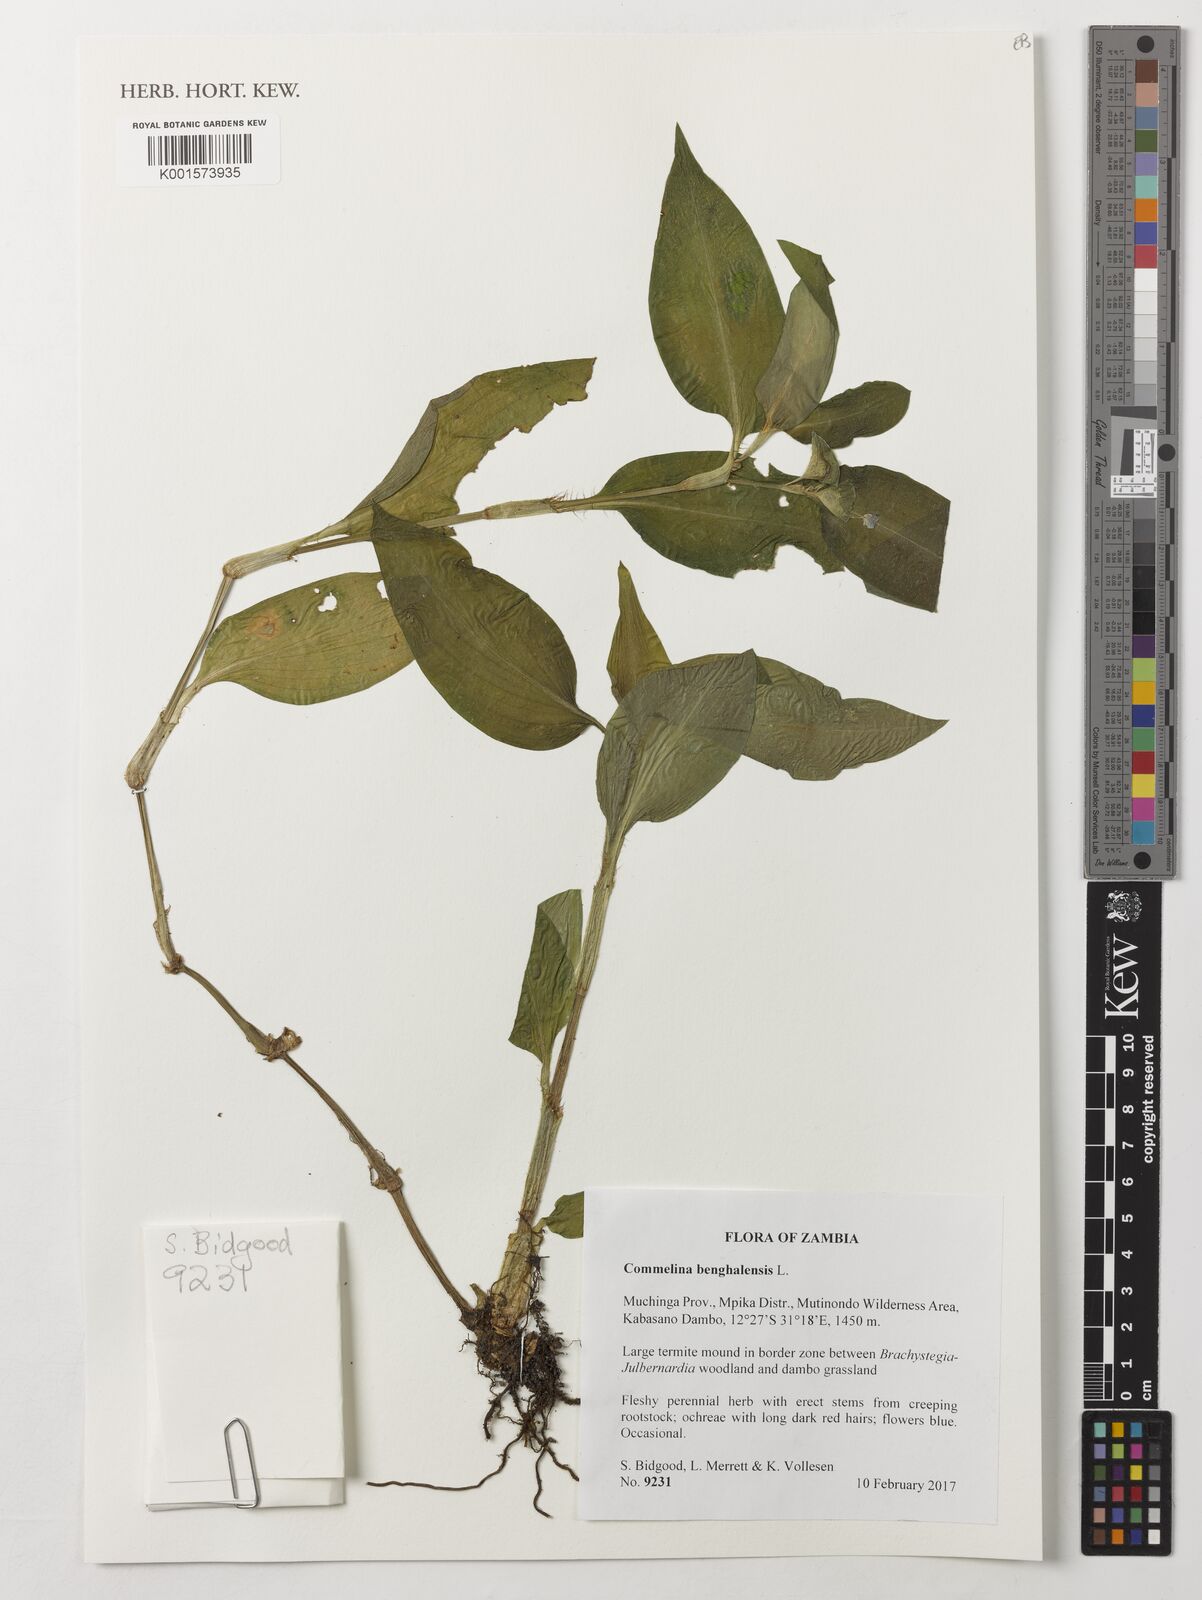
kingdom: Plantae
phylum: Tracheophyta
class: Liliopsida
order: Commelinales
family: Commelinaceae
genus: Commelina
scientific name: Commelina benghalensis
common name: Jio
